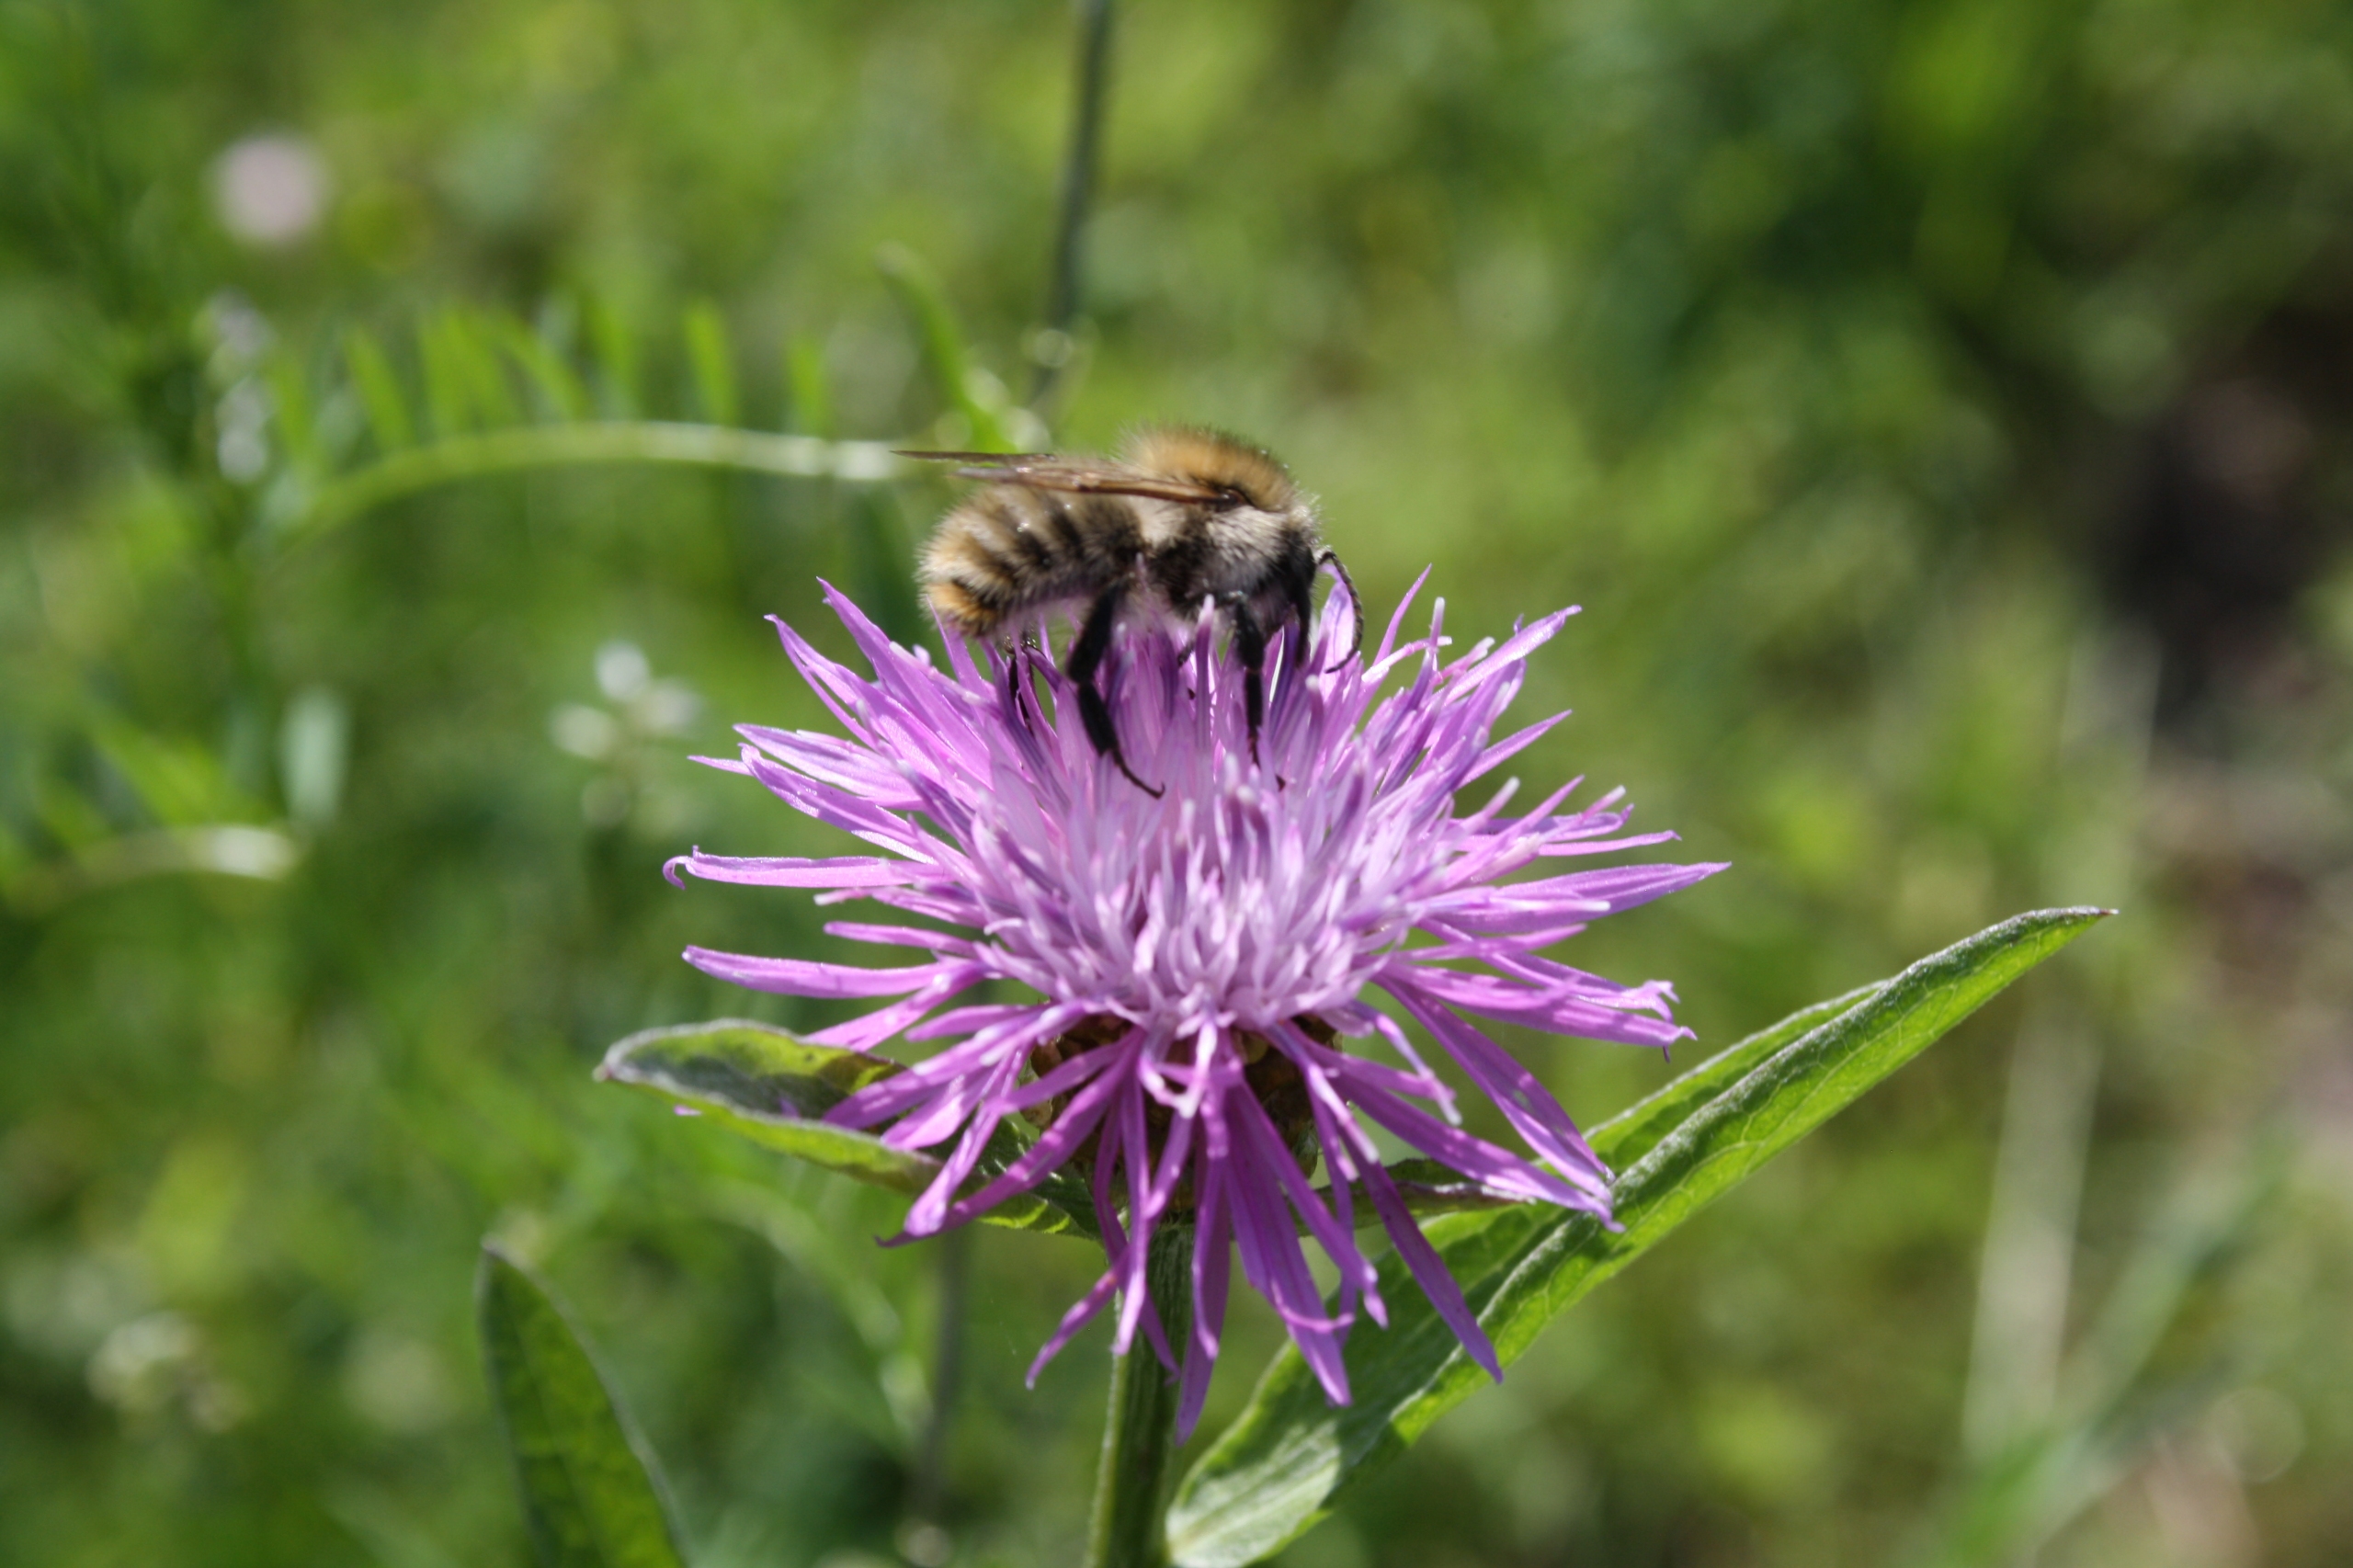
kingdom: Animalia
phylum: Arthropoda
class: Insecta
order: Hymenoptera
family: Apidae
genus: Bombus
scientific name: Bombus pascuorum
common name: Agerhumle
